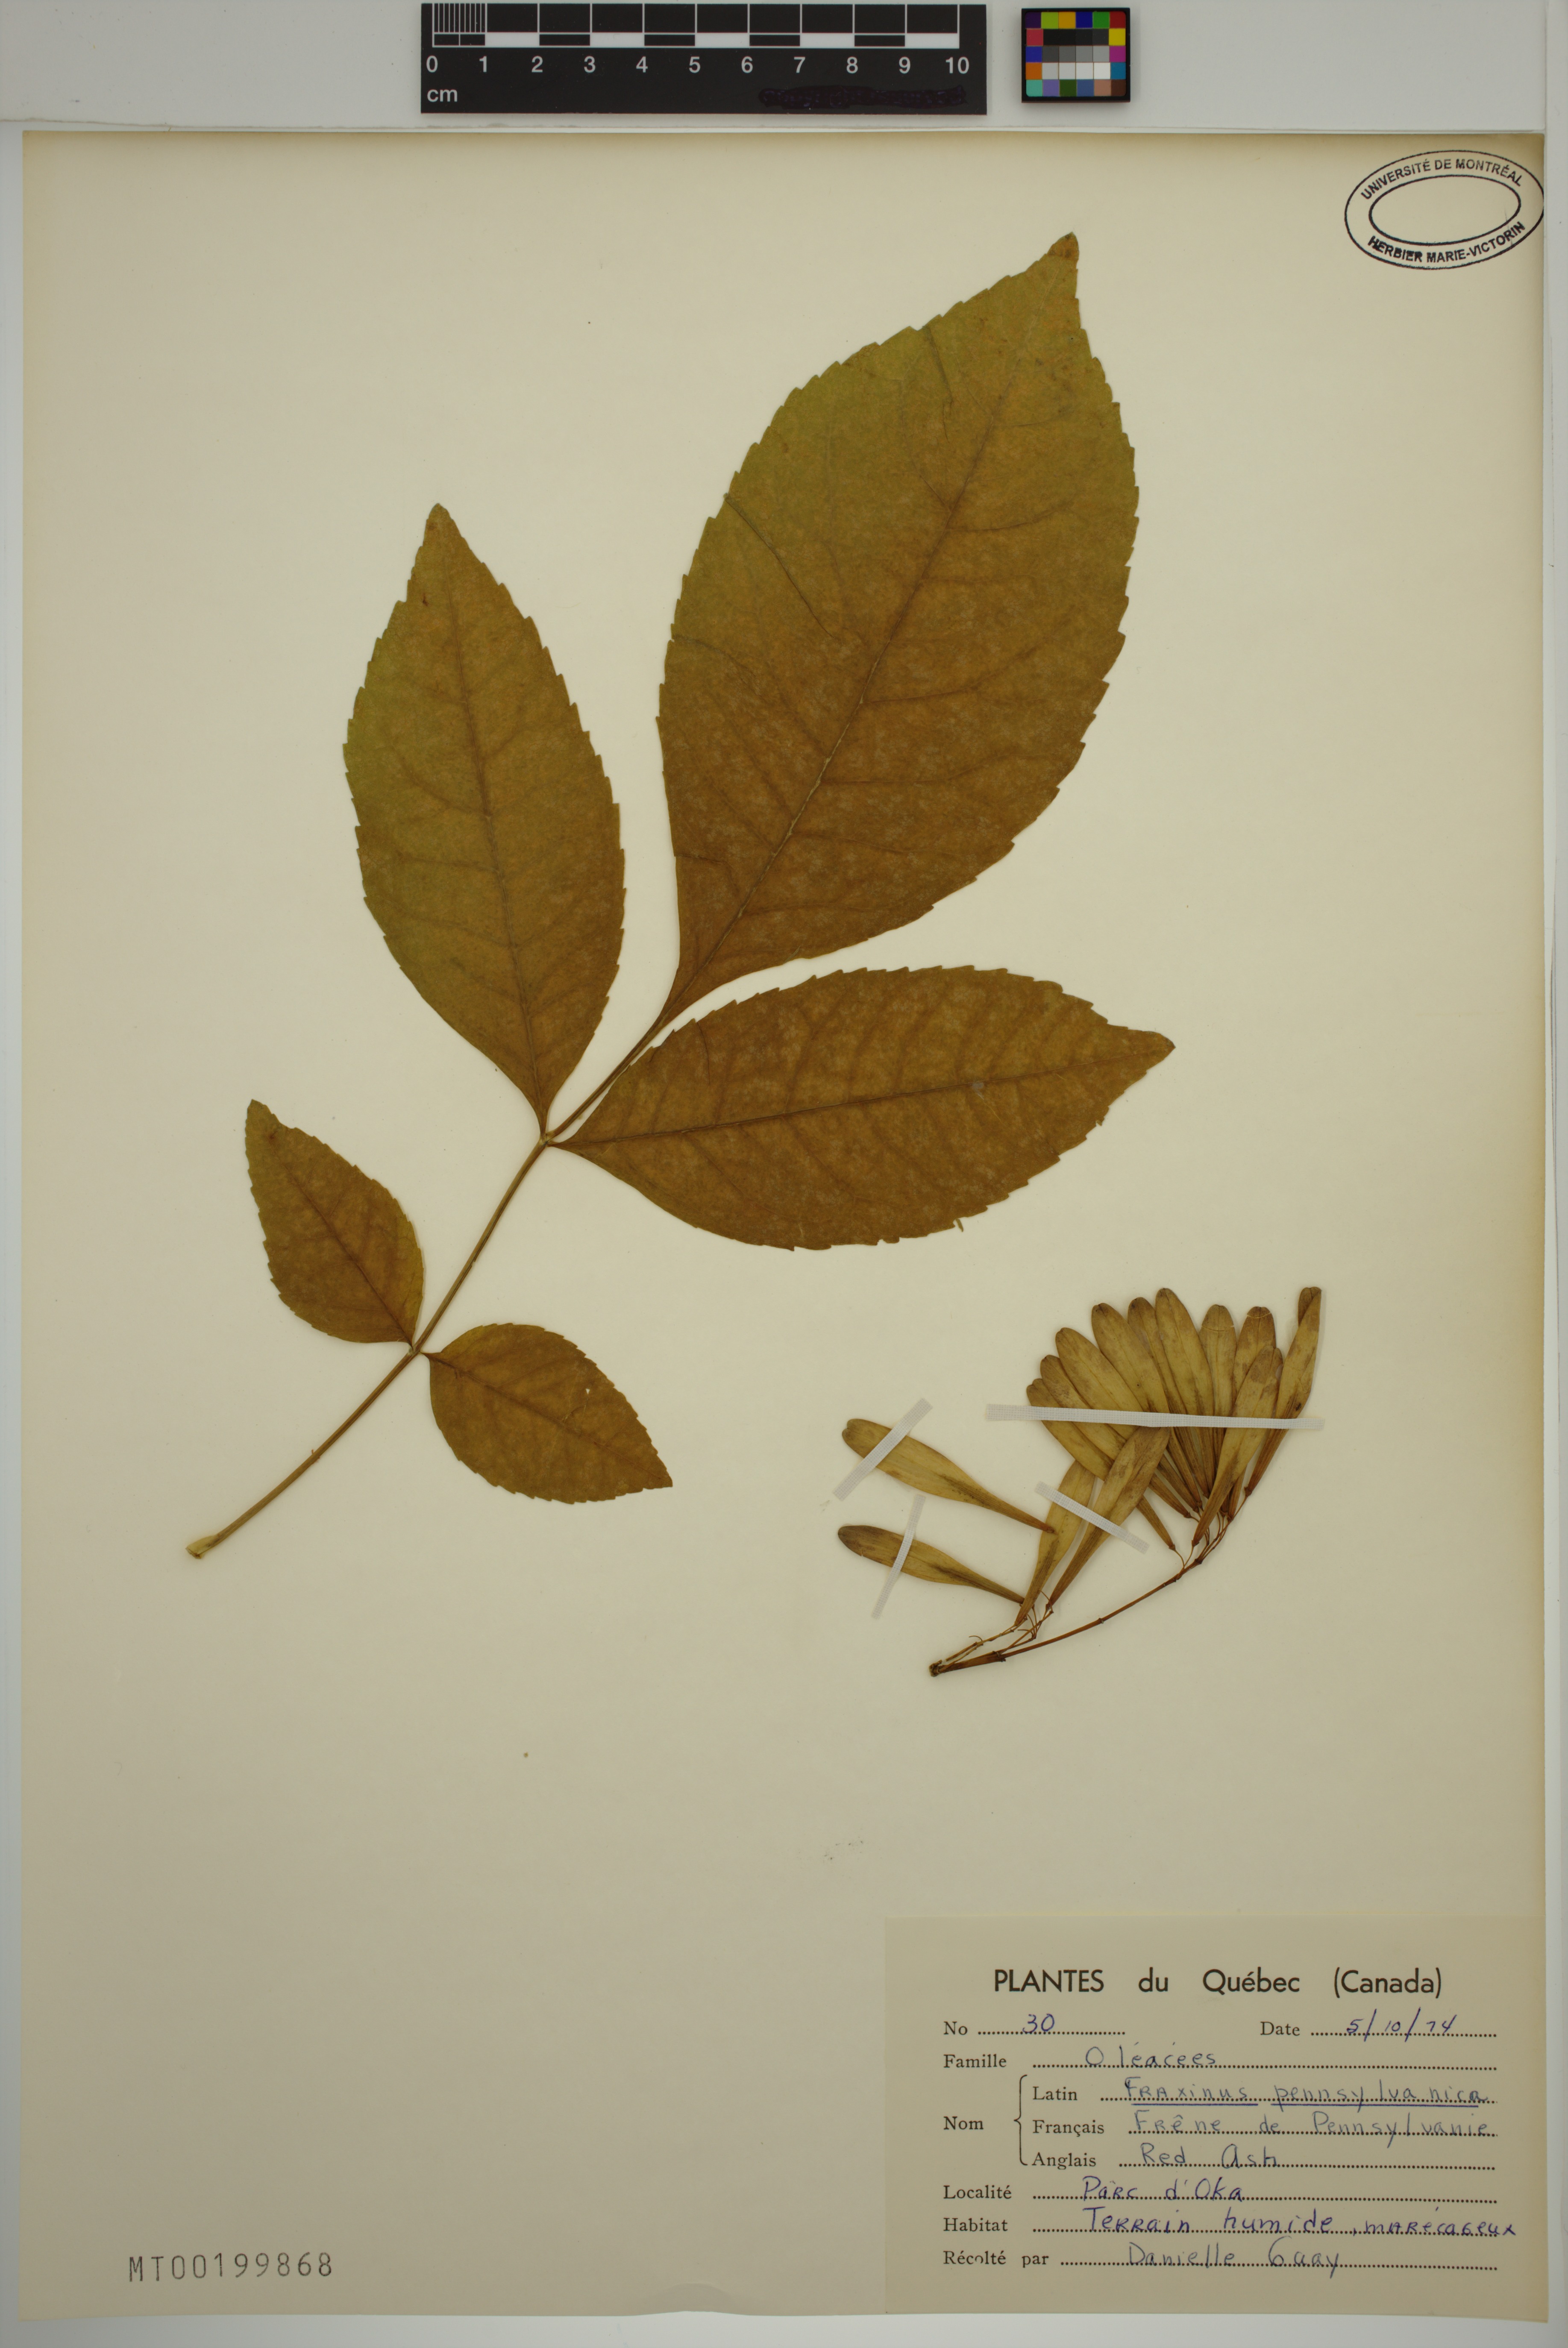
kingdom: Plantae
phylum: Tracheophyta
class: Magnoliopsida
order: Lamiales
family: Oleaceae
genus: Fraxinus
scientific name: Fraxinus pennsylvanica
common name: Green ash
